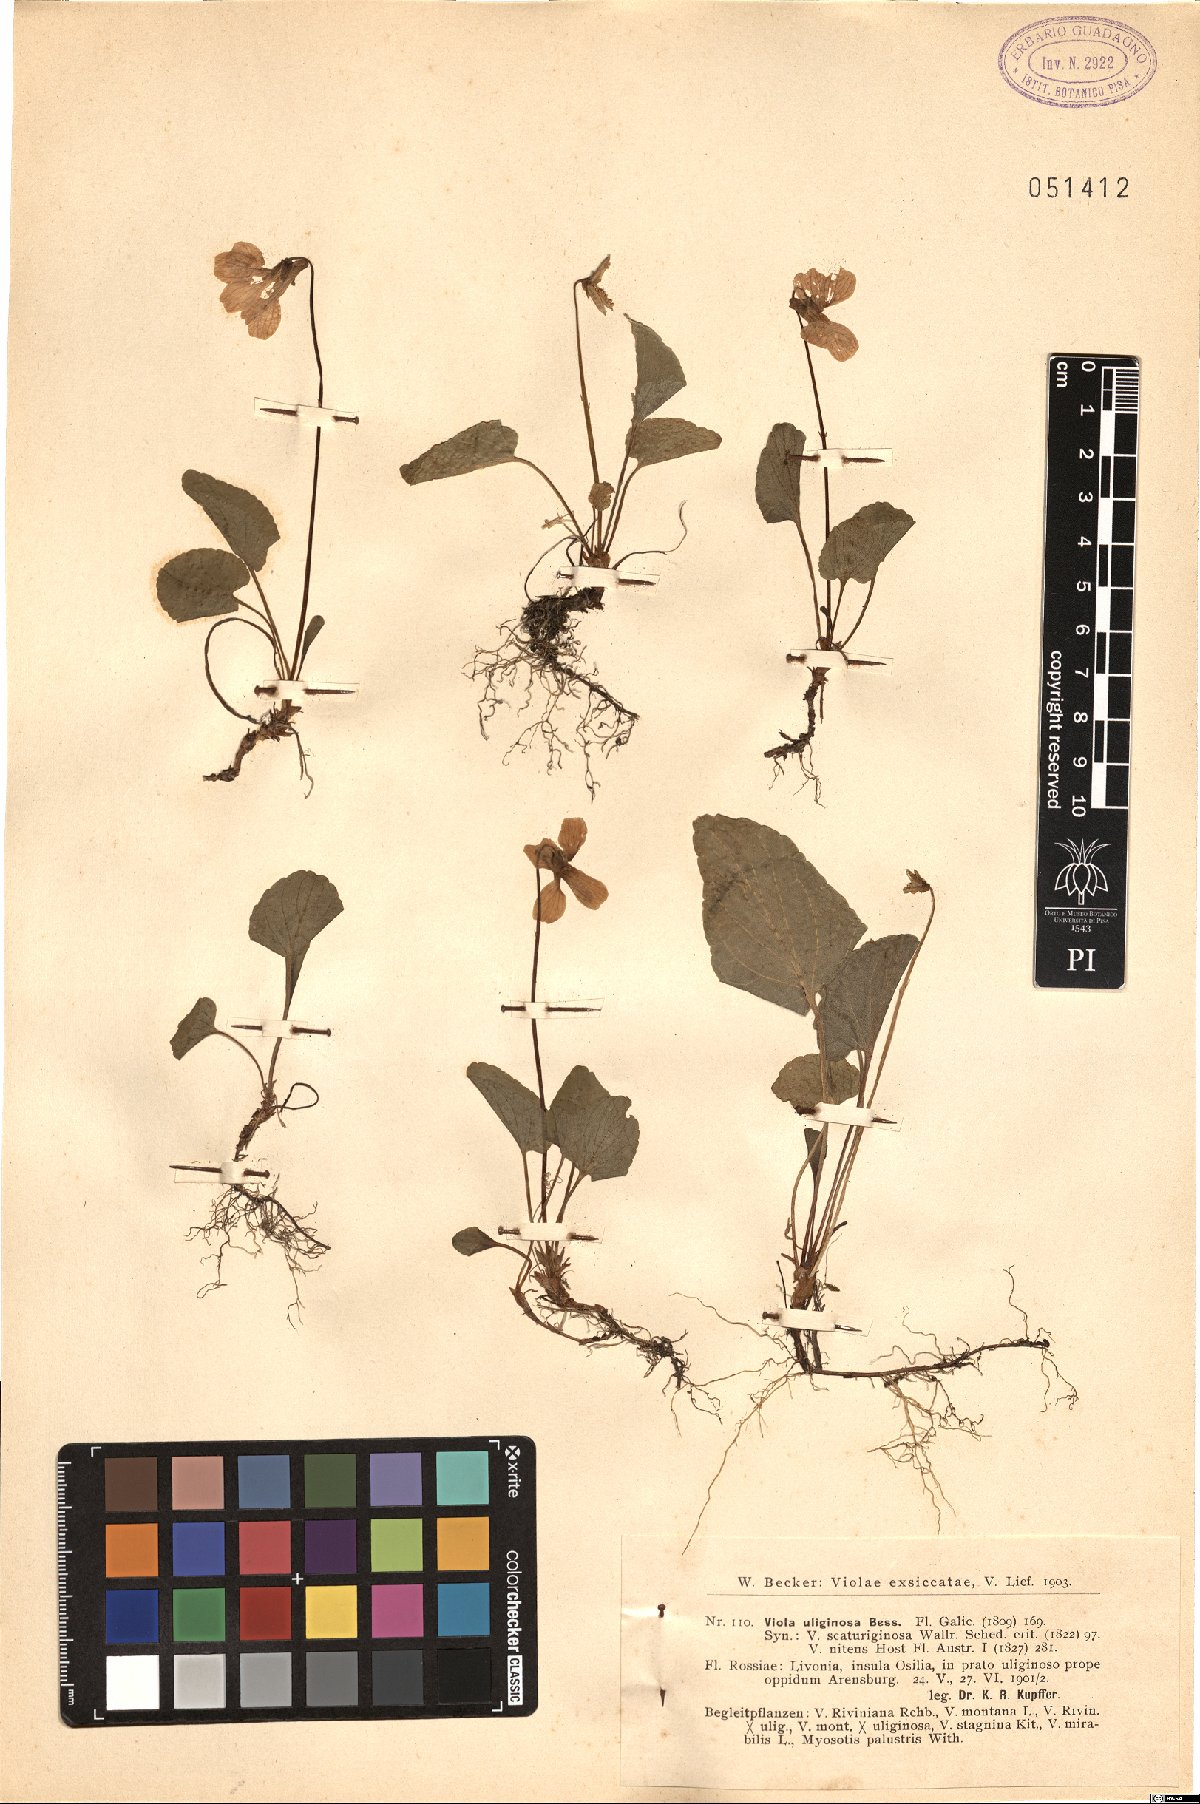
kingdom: Plantae
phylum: Tracheophyta
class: Magnoliopsida
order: Malpighiales
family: Violaceae
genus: Viola
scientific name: Viola uliginosa
